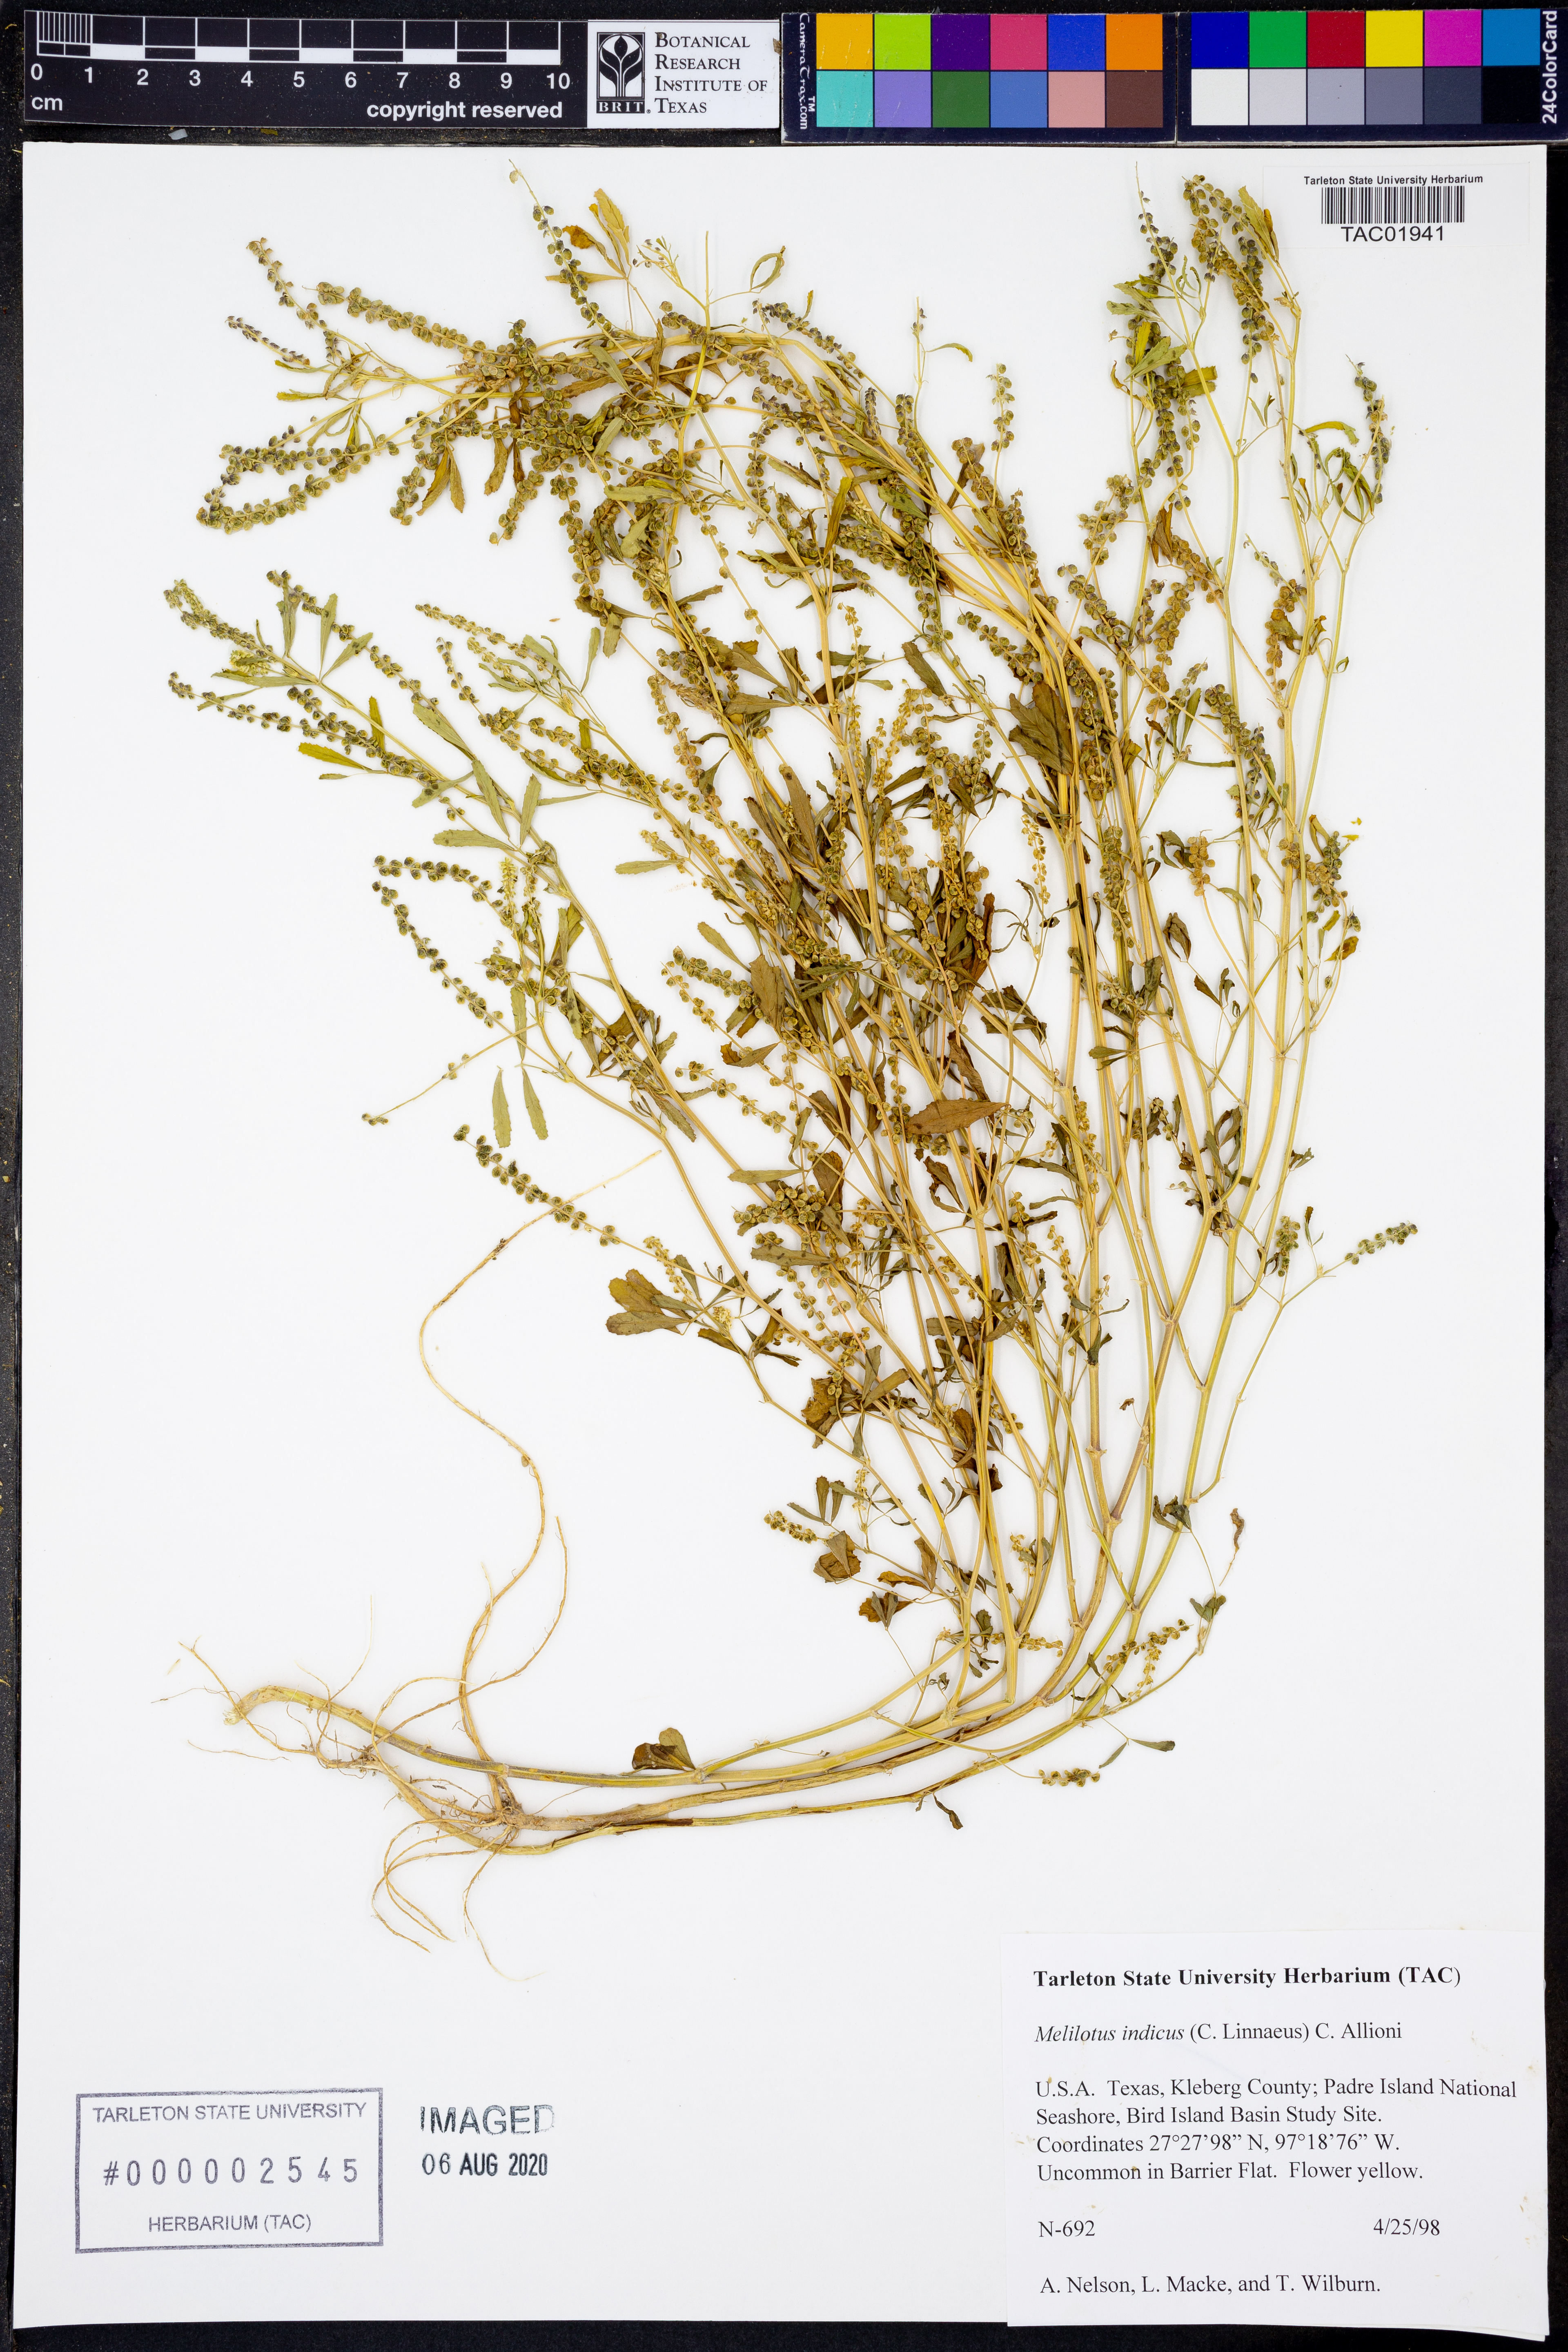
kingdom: Plantae
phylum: Tracheophyta
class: Magnoliopsida
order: Fabales
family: Fabaceae
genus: Melilotus
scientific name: Melilotus indicus
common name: Small melilot
